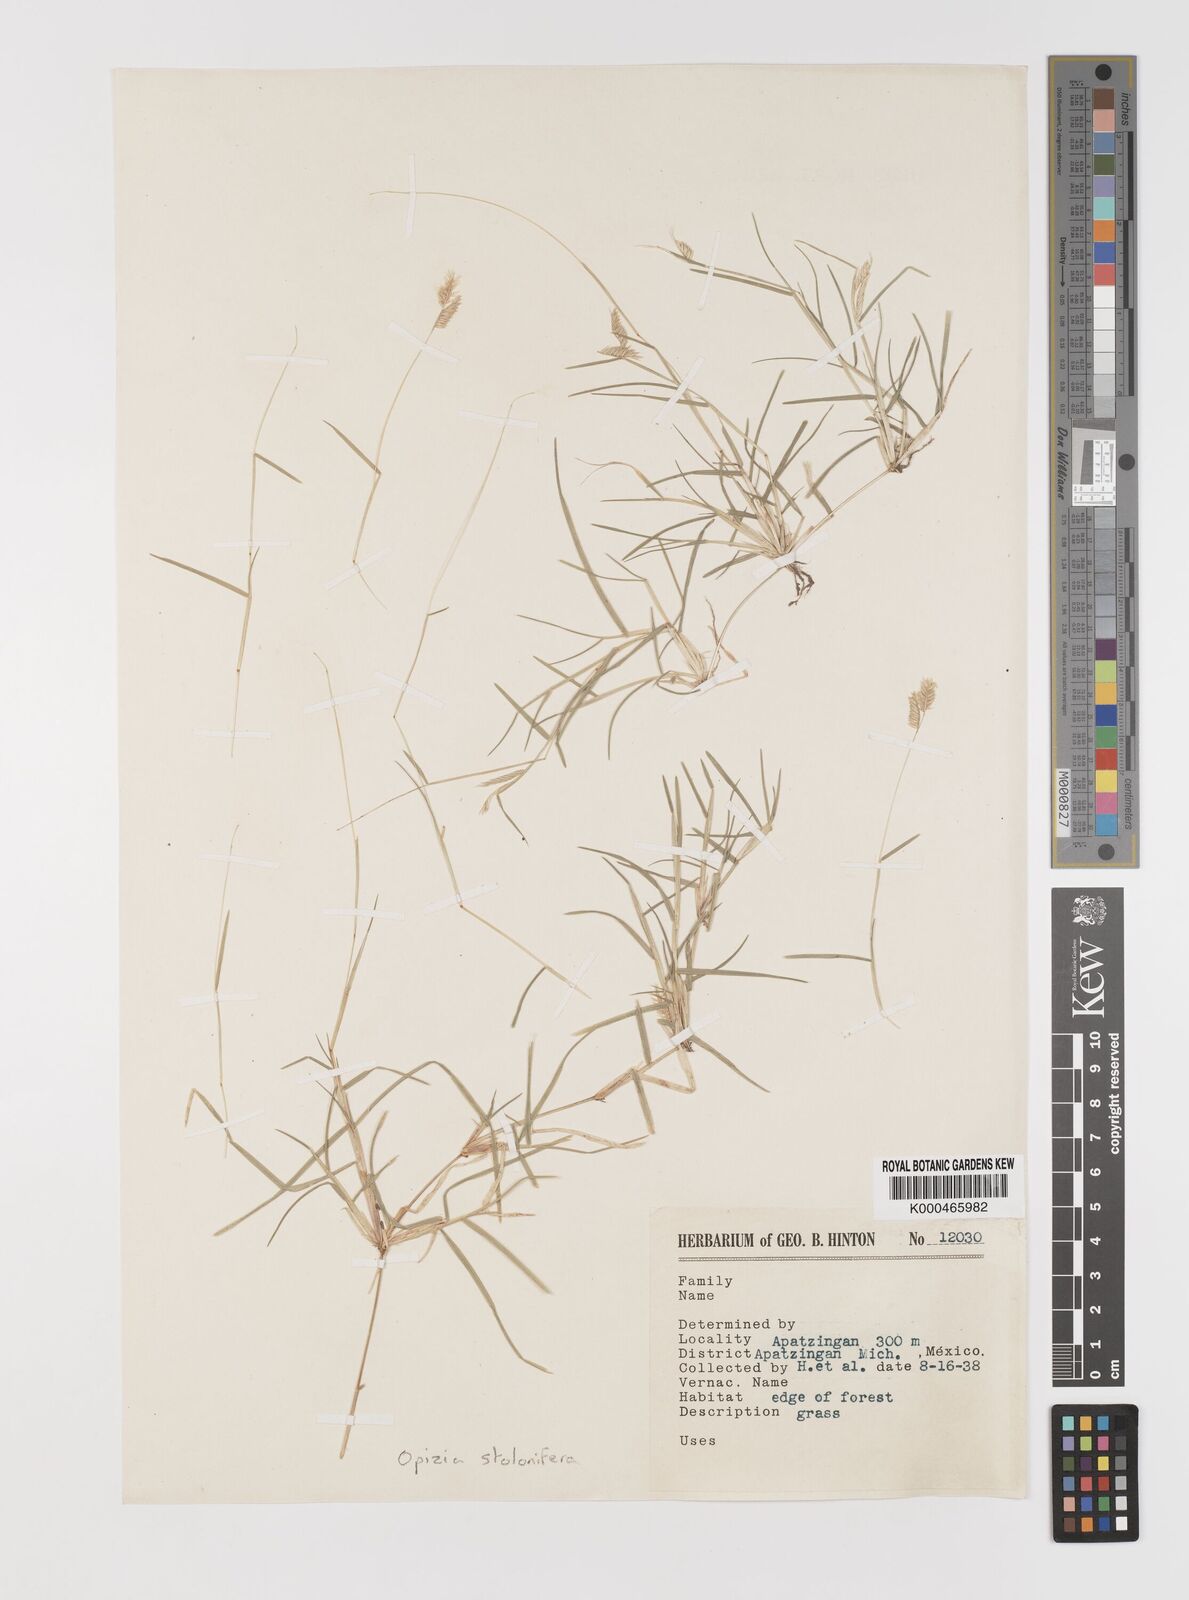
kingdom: Plantae
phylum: Tracheophyta
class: Liliopsida
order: Poales
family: Poaceae
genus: Bouteloua
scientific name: Bouteloua dimorpha
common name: Acapulco grass
